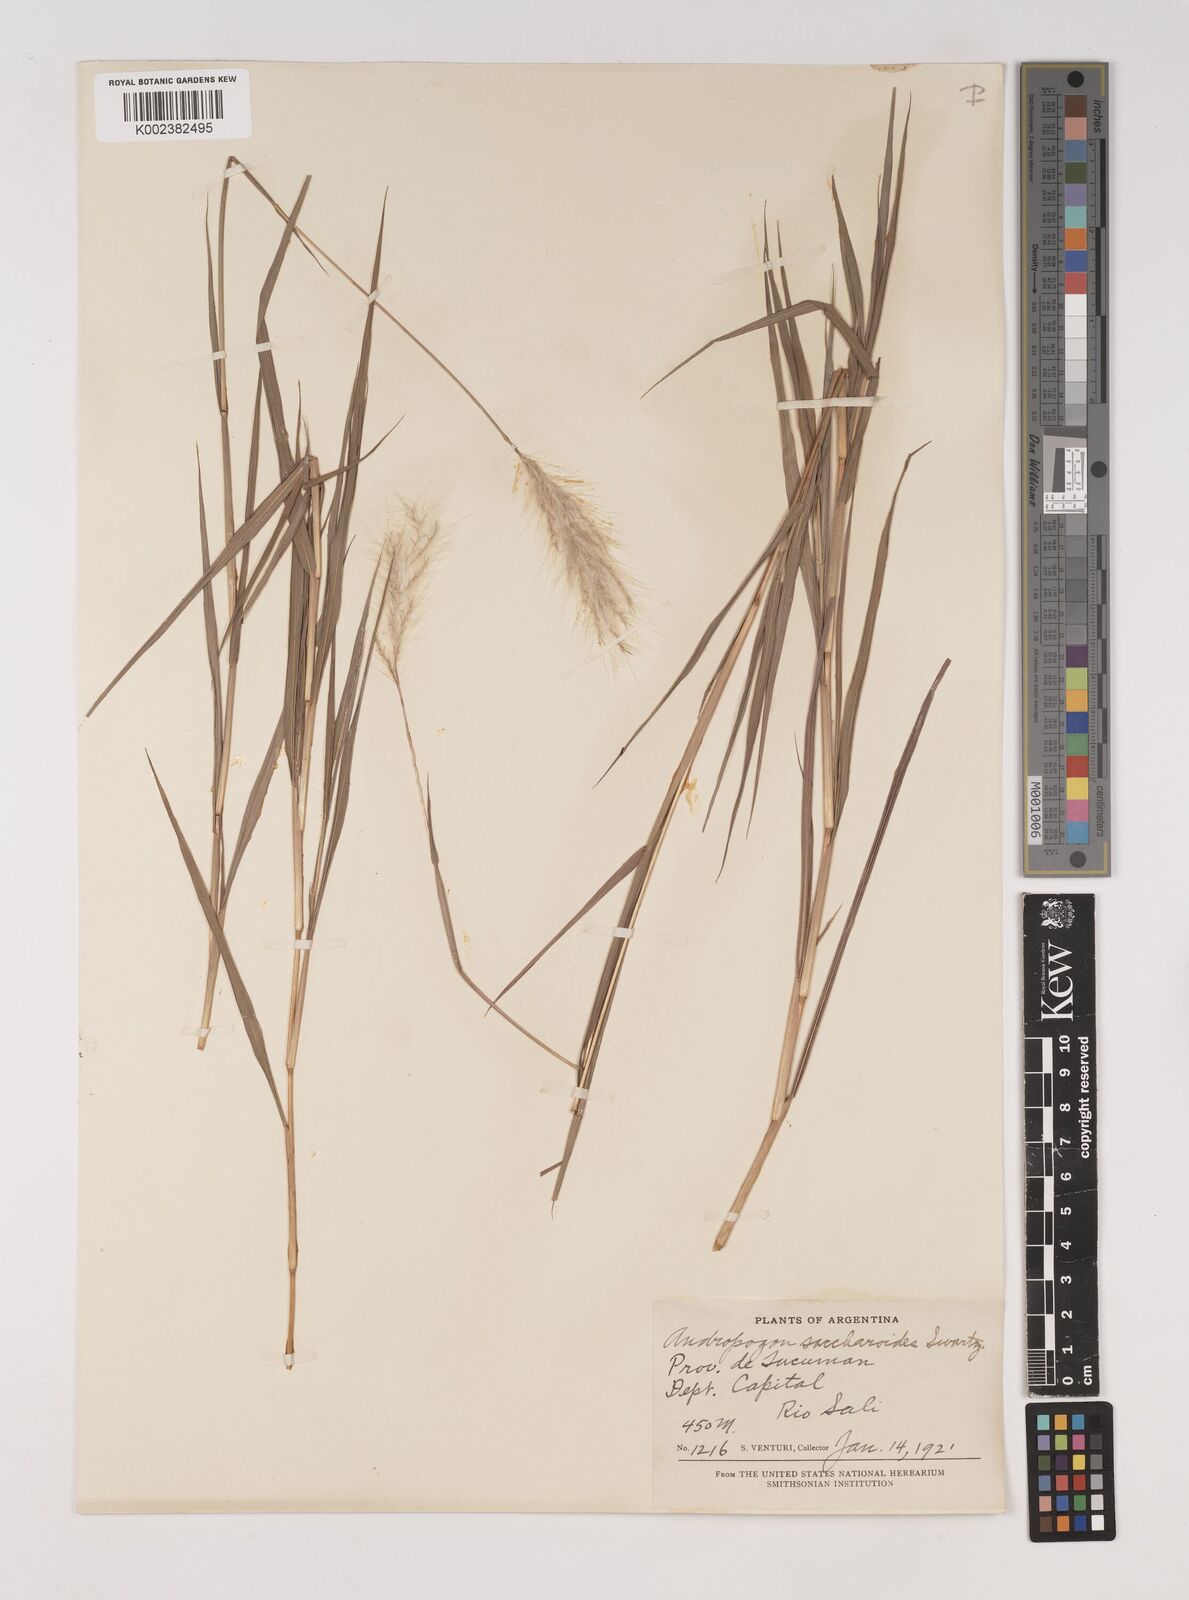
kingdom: Plantae
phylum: Tracheophyta
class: Liliopsida
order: Poales
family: Poaceae
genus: Bothriochloa
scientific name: Bothriochloa laguroides
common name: Silver bluestem
